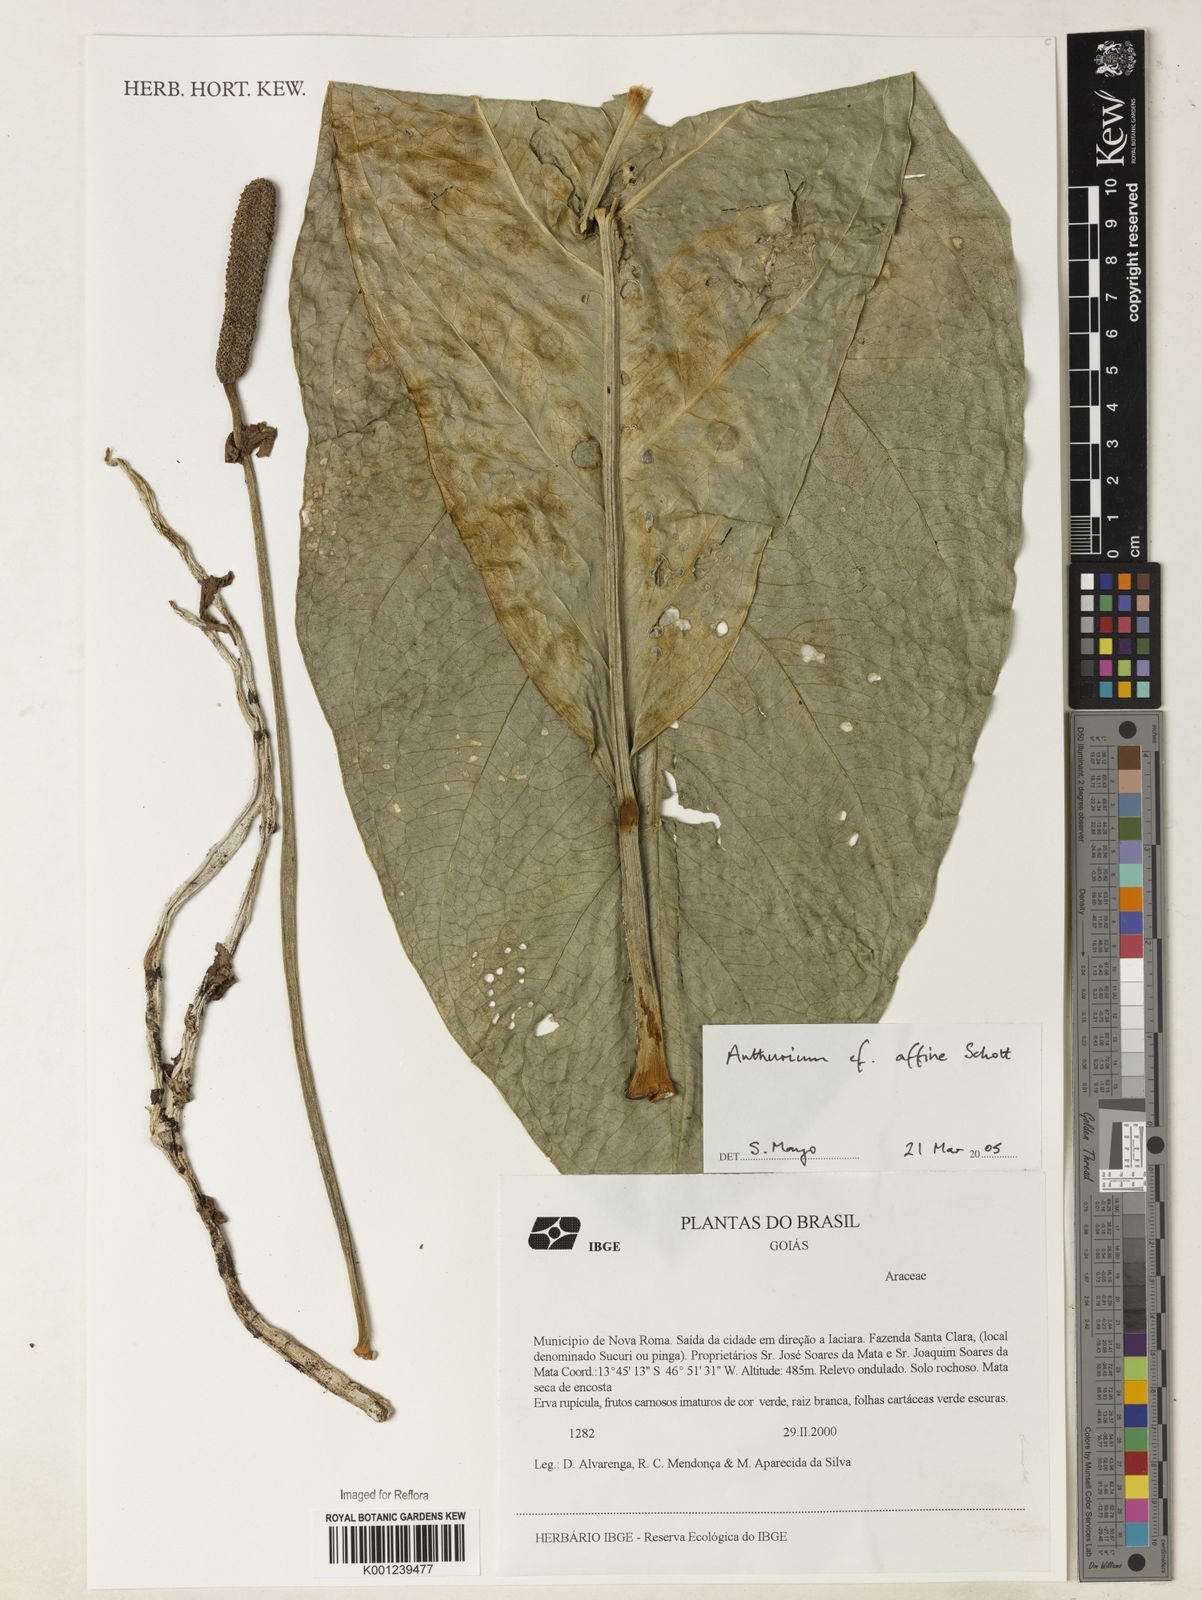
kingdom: Plantae
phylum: Tracheophyta
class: Liliopsida
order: Alismatales
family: Araceae
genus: Anthurium
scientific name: Anthurium affine
